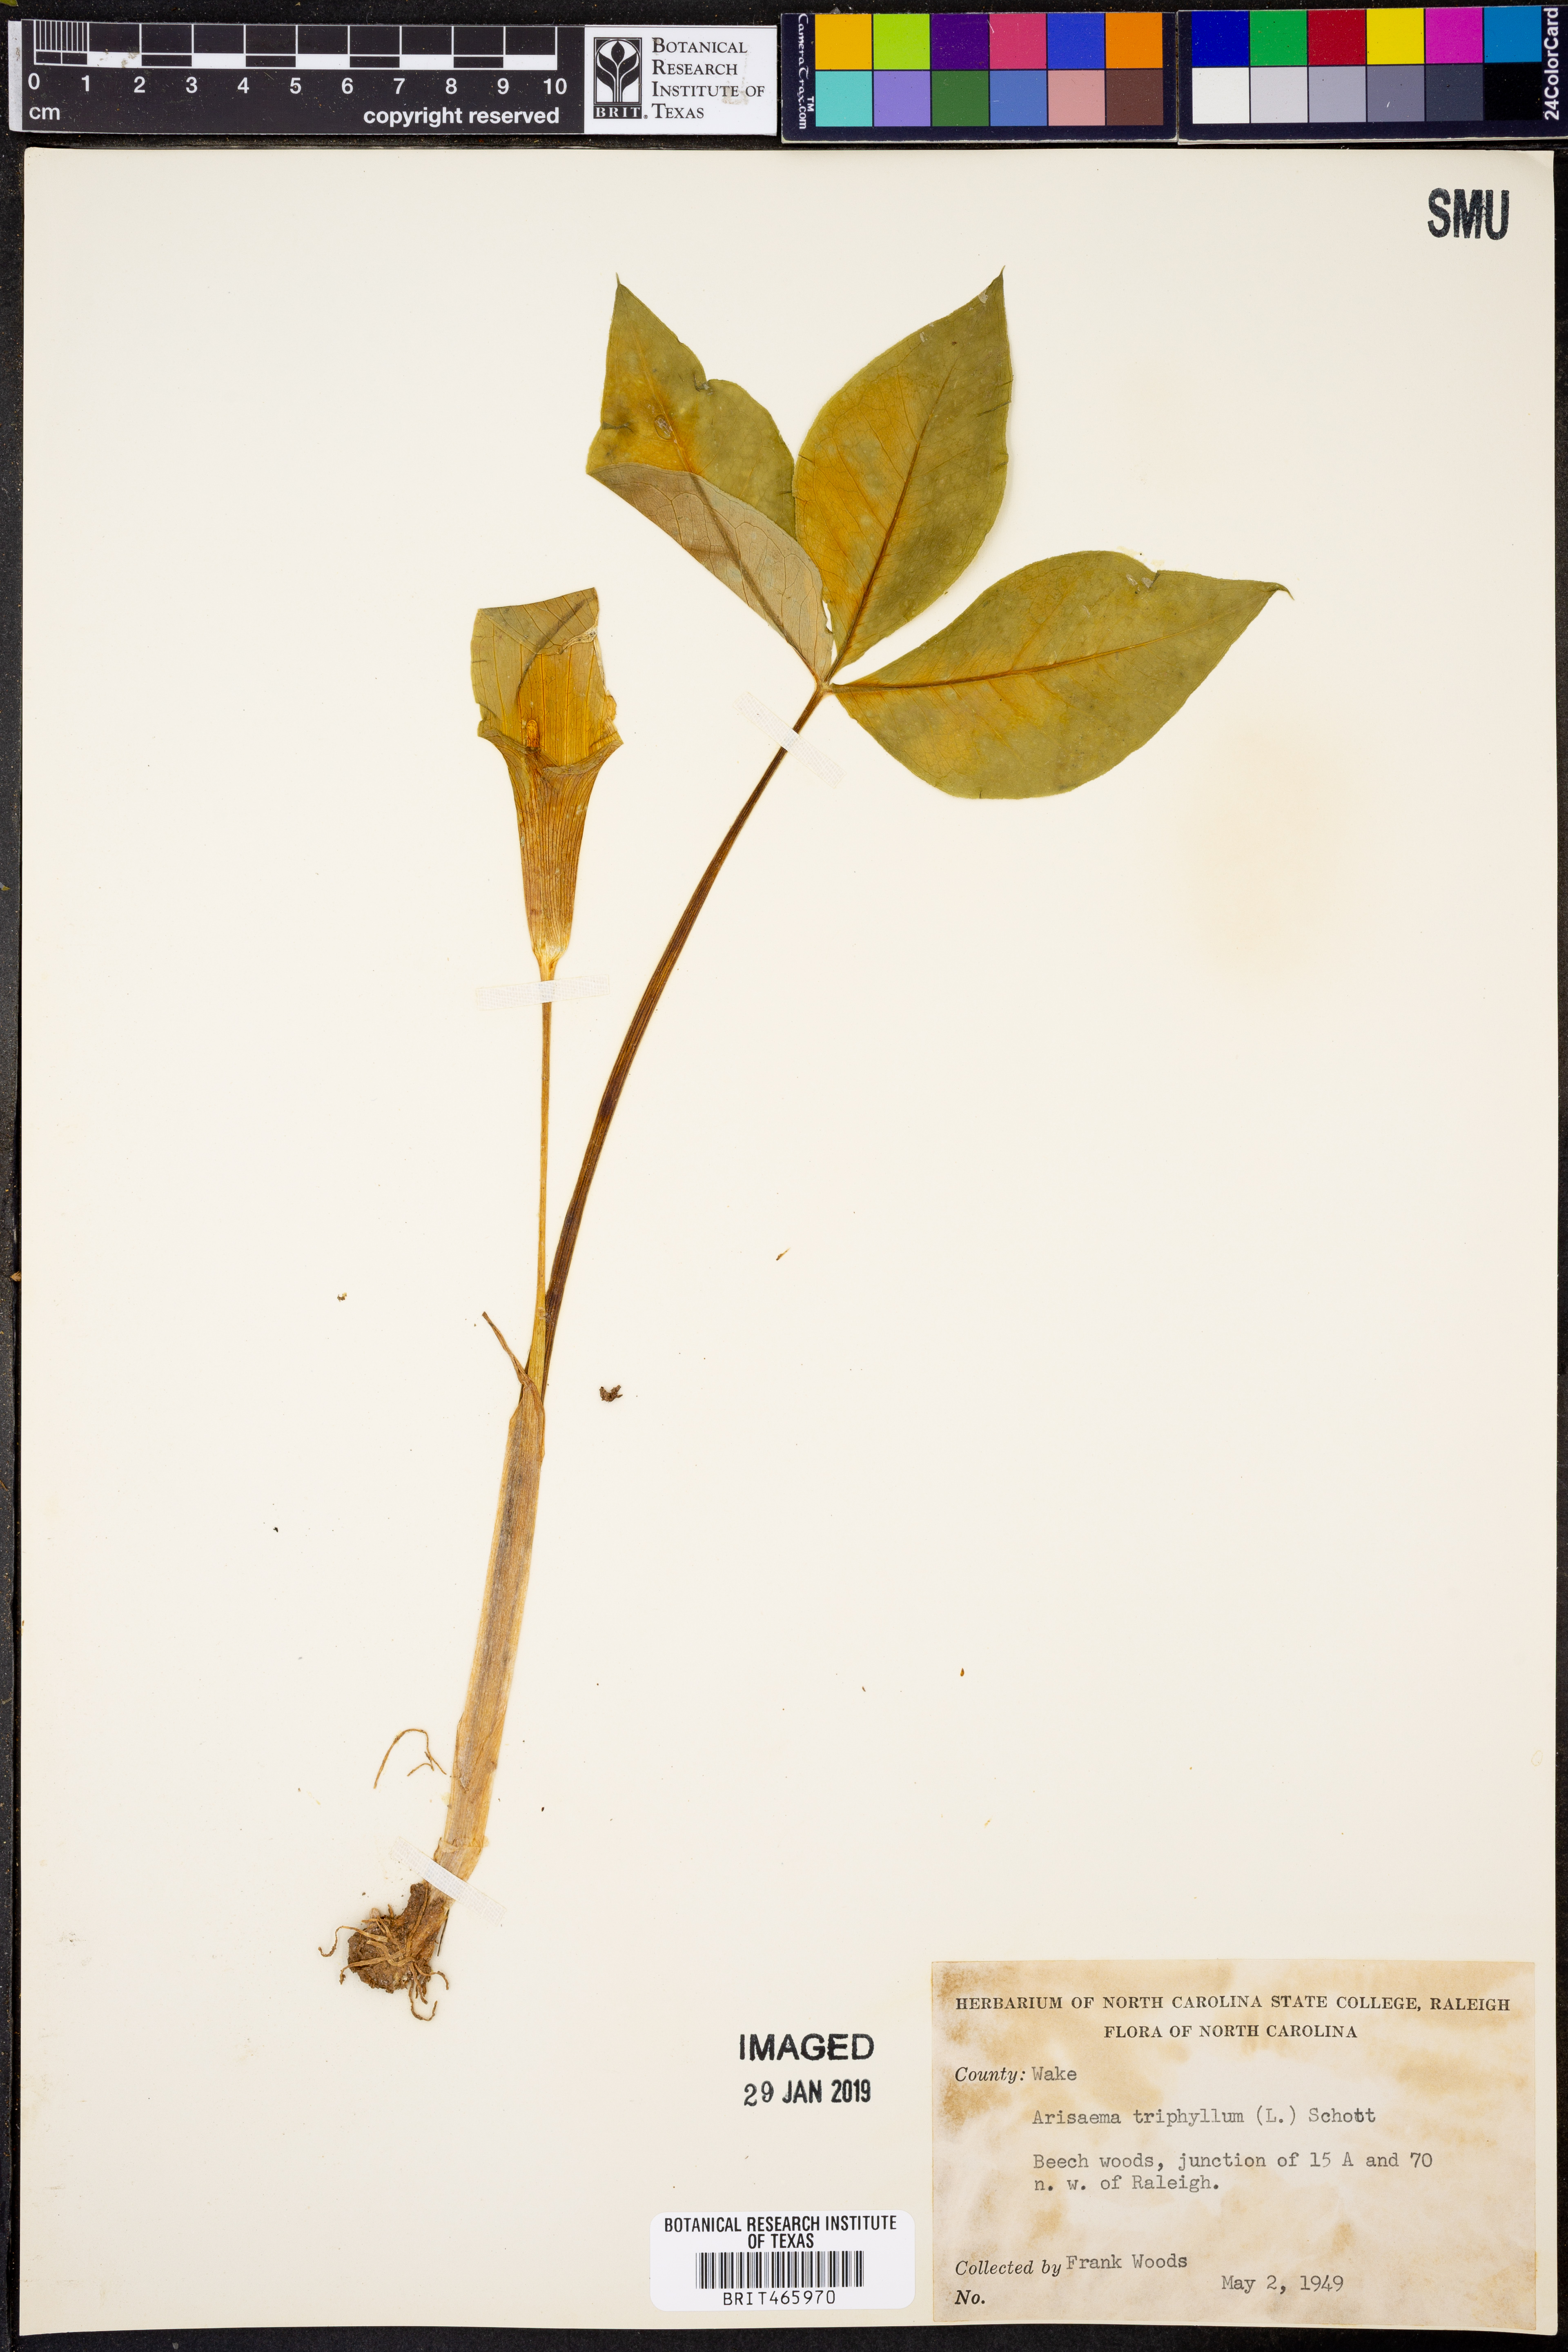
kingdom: Plantae
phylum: Tracheophyta
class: Liliopsida
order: Alismatales
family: Araceae
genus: Arisaema
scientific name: Arisaema triphyllum
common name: Jack-in-the-pulpit
